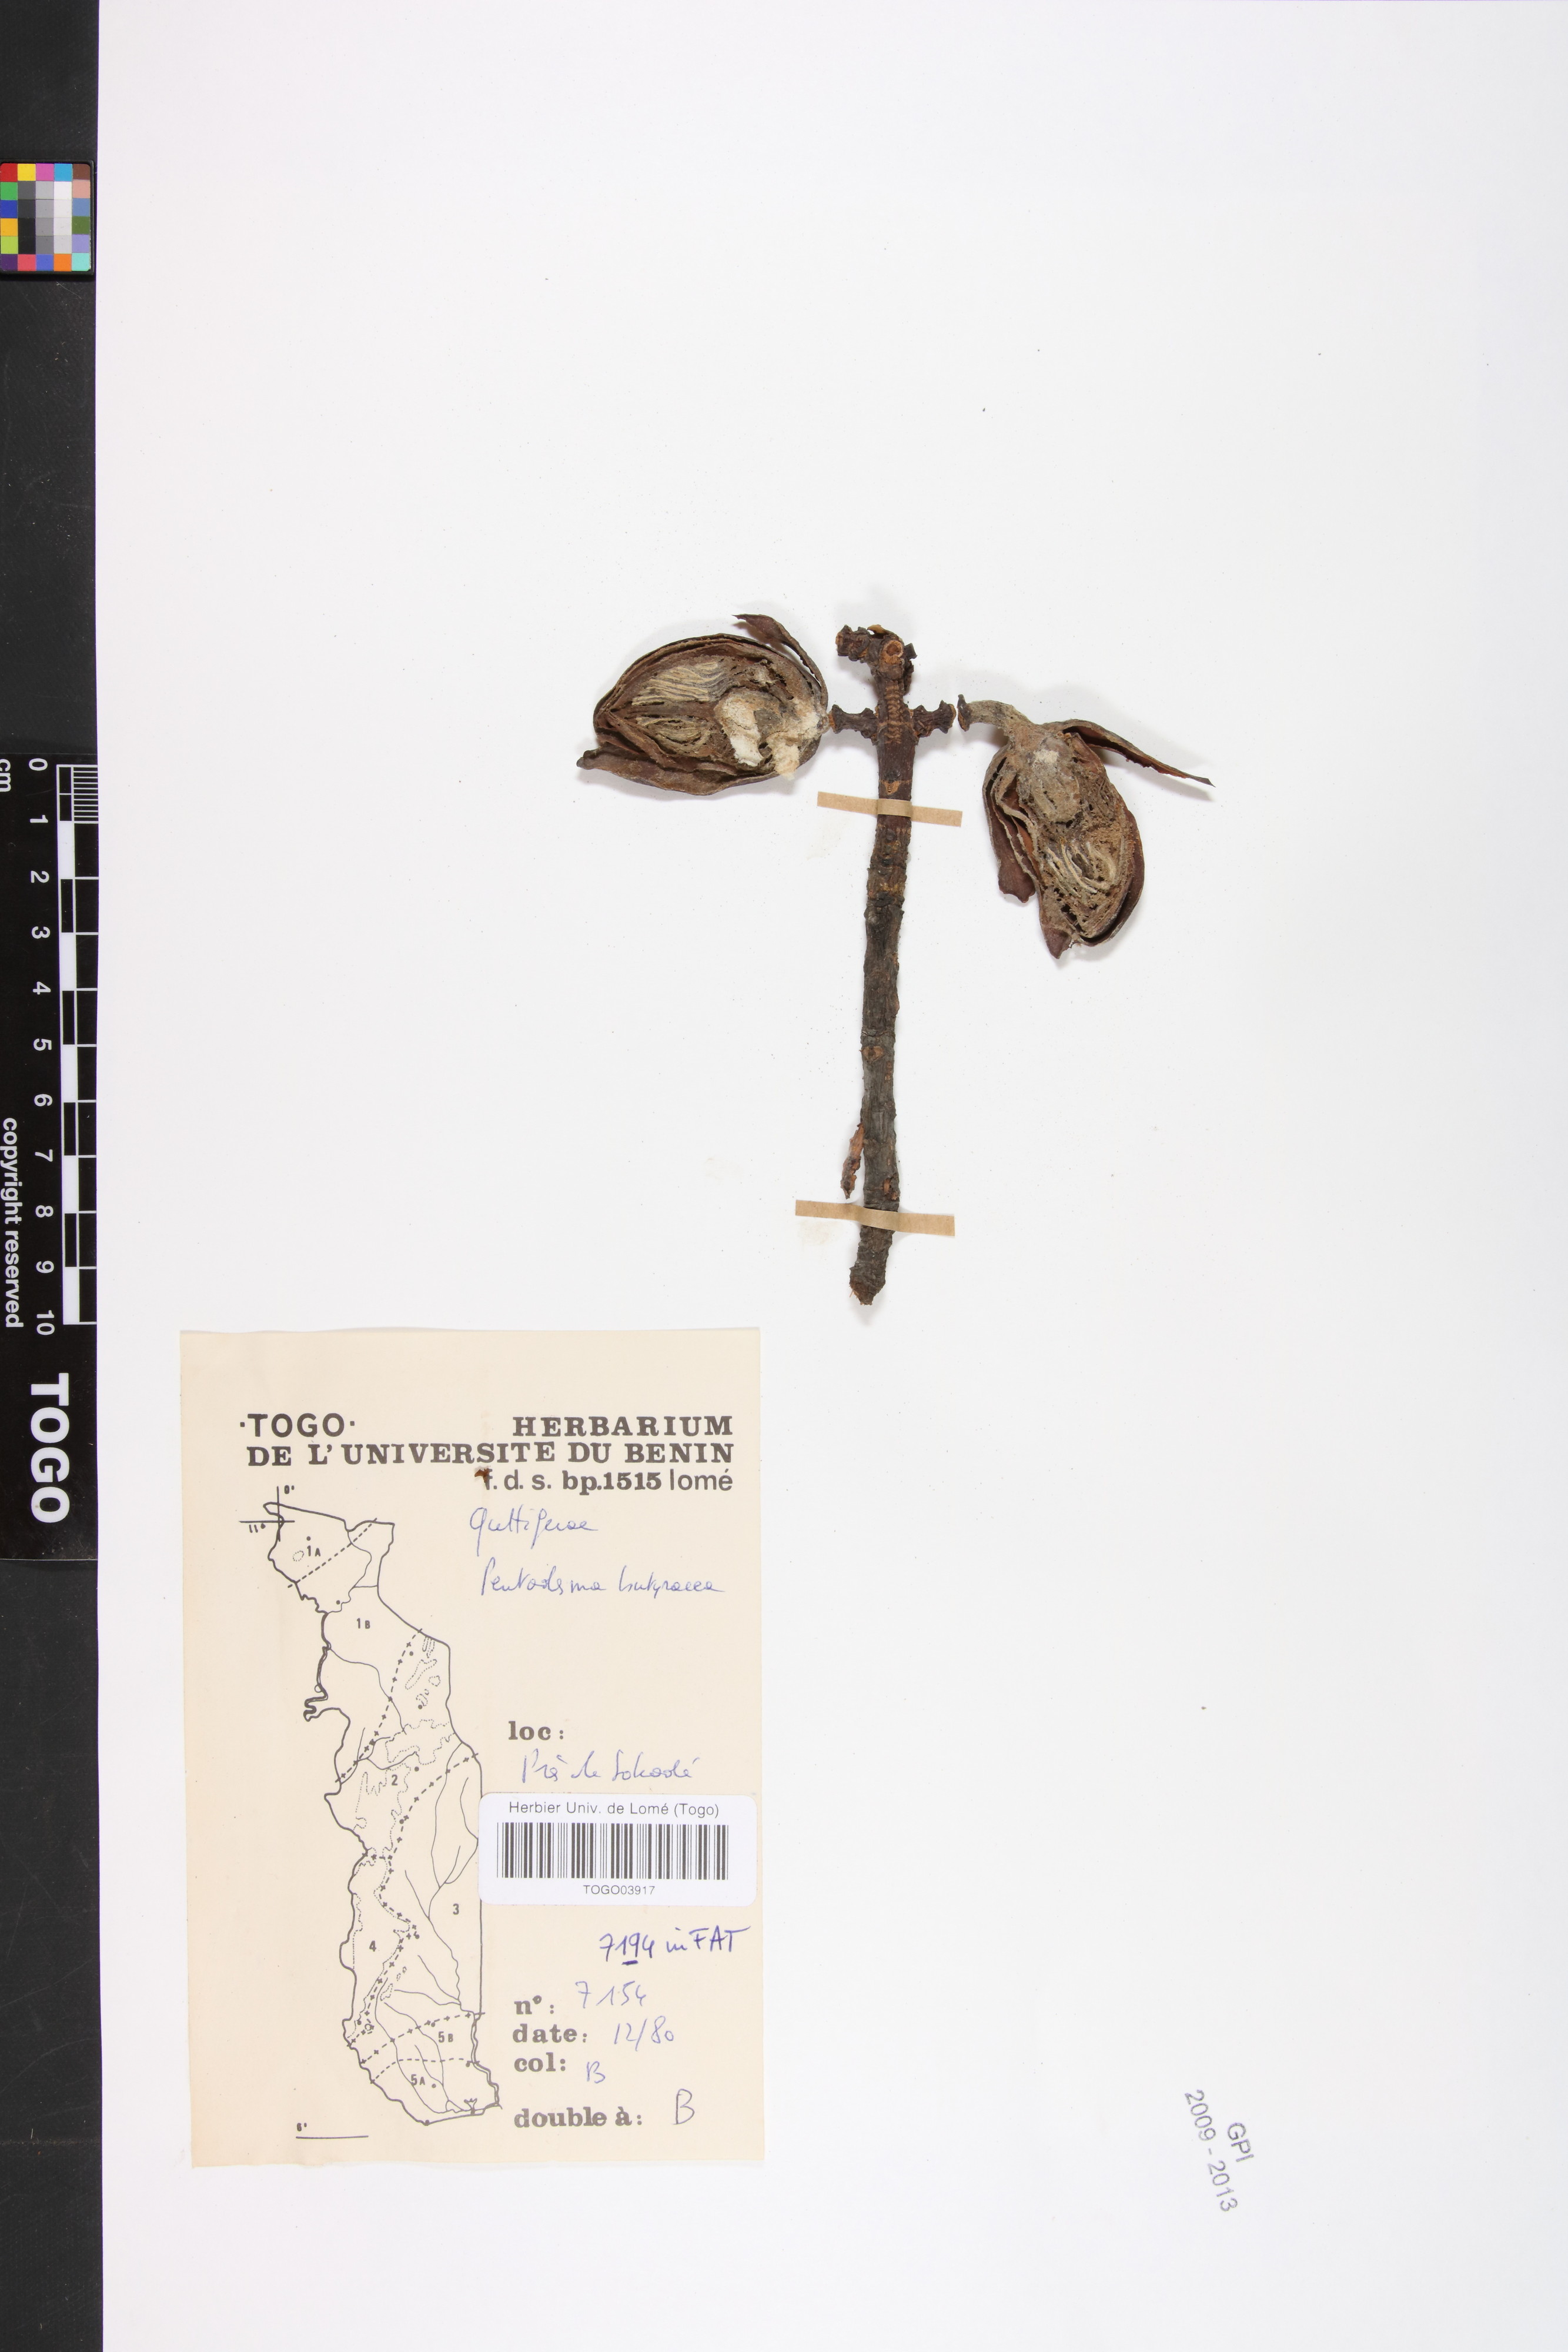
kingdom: Plantae
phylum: Tracheophyta
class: Magnoliopsida
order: Malpighiales
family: Clusiaceae
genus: Pentadesma
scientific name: Pentadesma butyracea
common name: Buttertree
